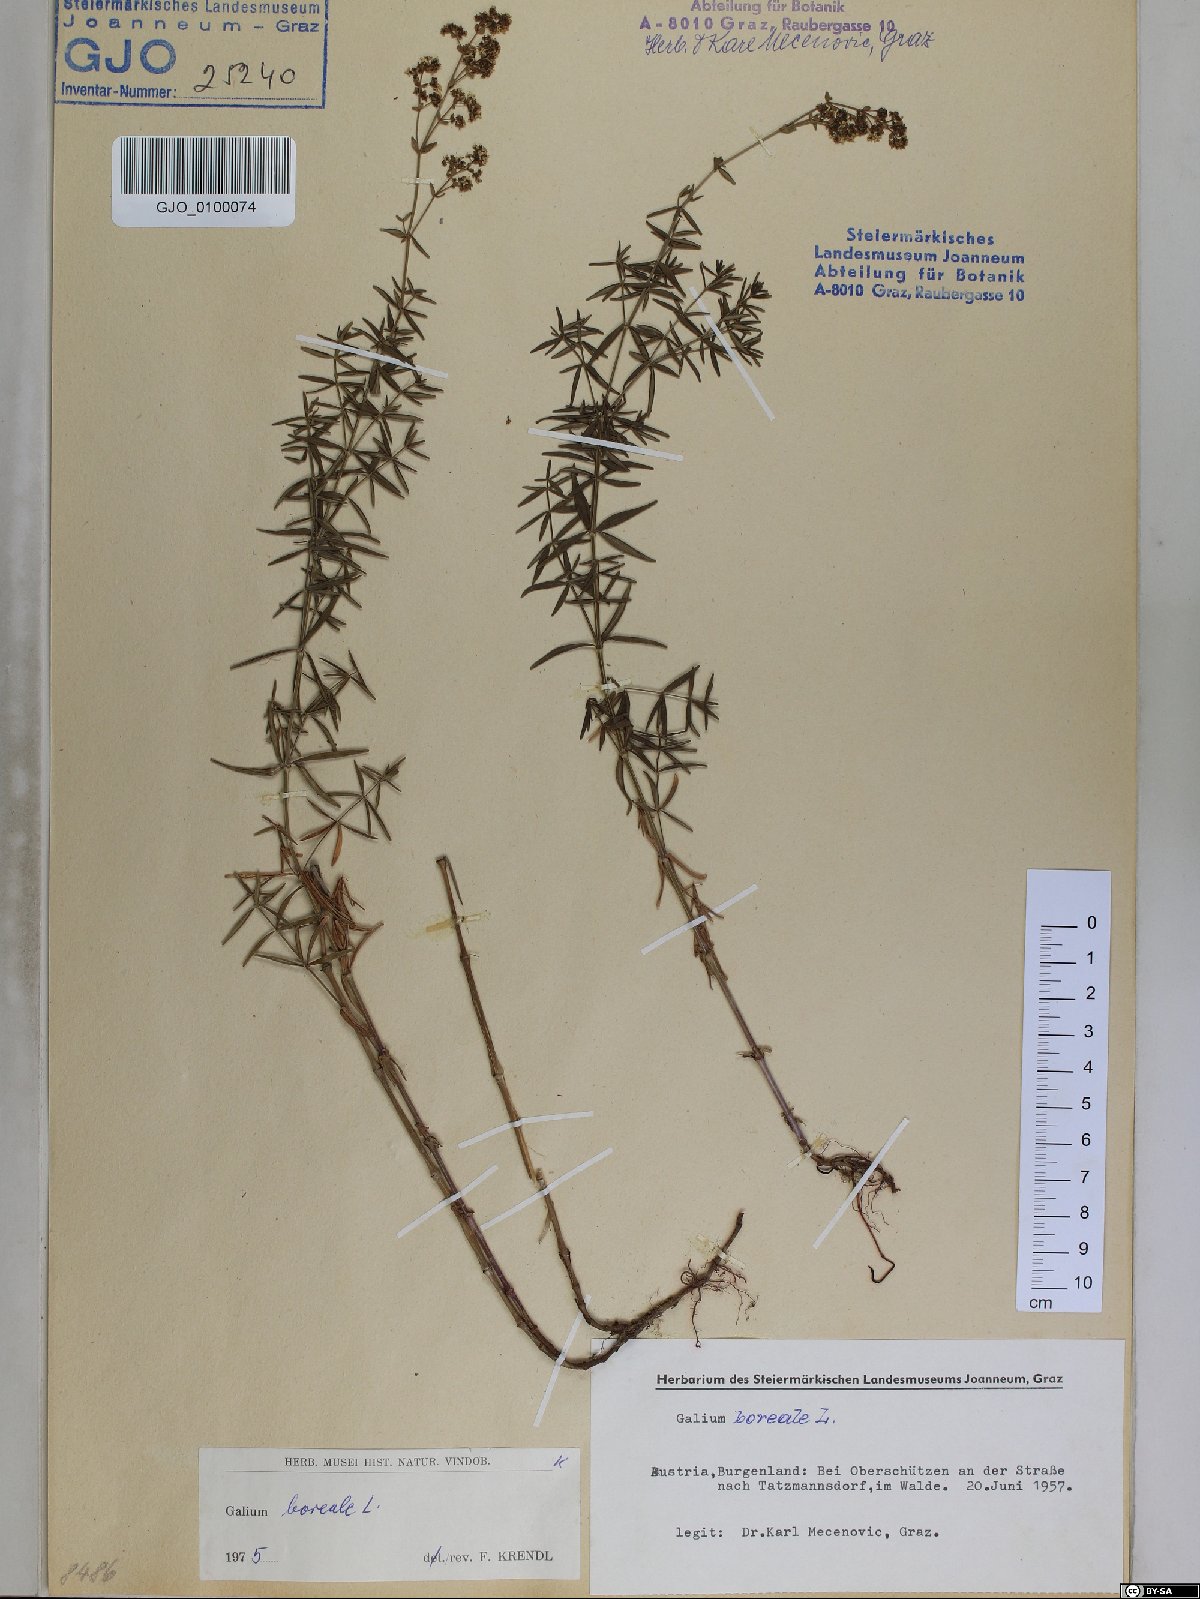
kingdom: Plantae
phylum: Tracheophyta
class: Magnoliopsida
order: Gentianales
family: Rubiaceae
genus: Galium
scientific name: Galium boreale
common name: Northern bedstraw
